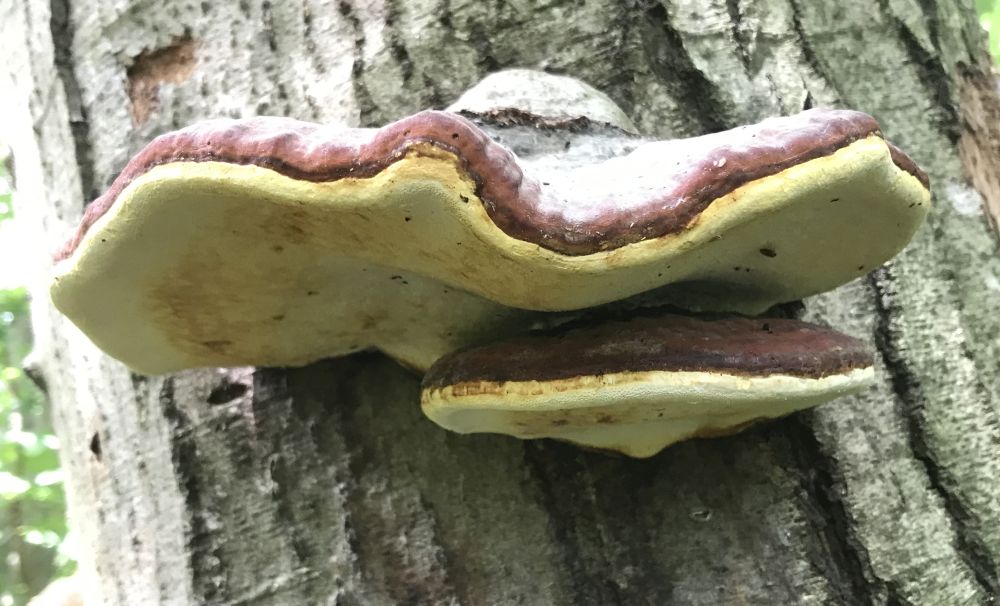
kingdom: Fungi
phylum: Basidiomycota
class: Agaricomycetes
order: Polyporales
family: Fomitopsidaceae
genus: Fomitopsis
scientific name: Fomitopsis pinicola
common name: randbæltet hovporesvamp
